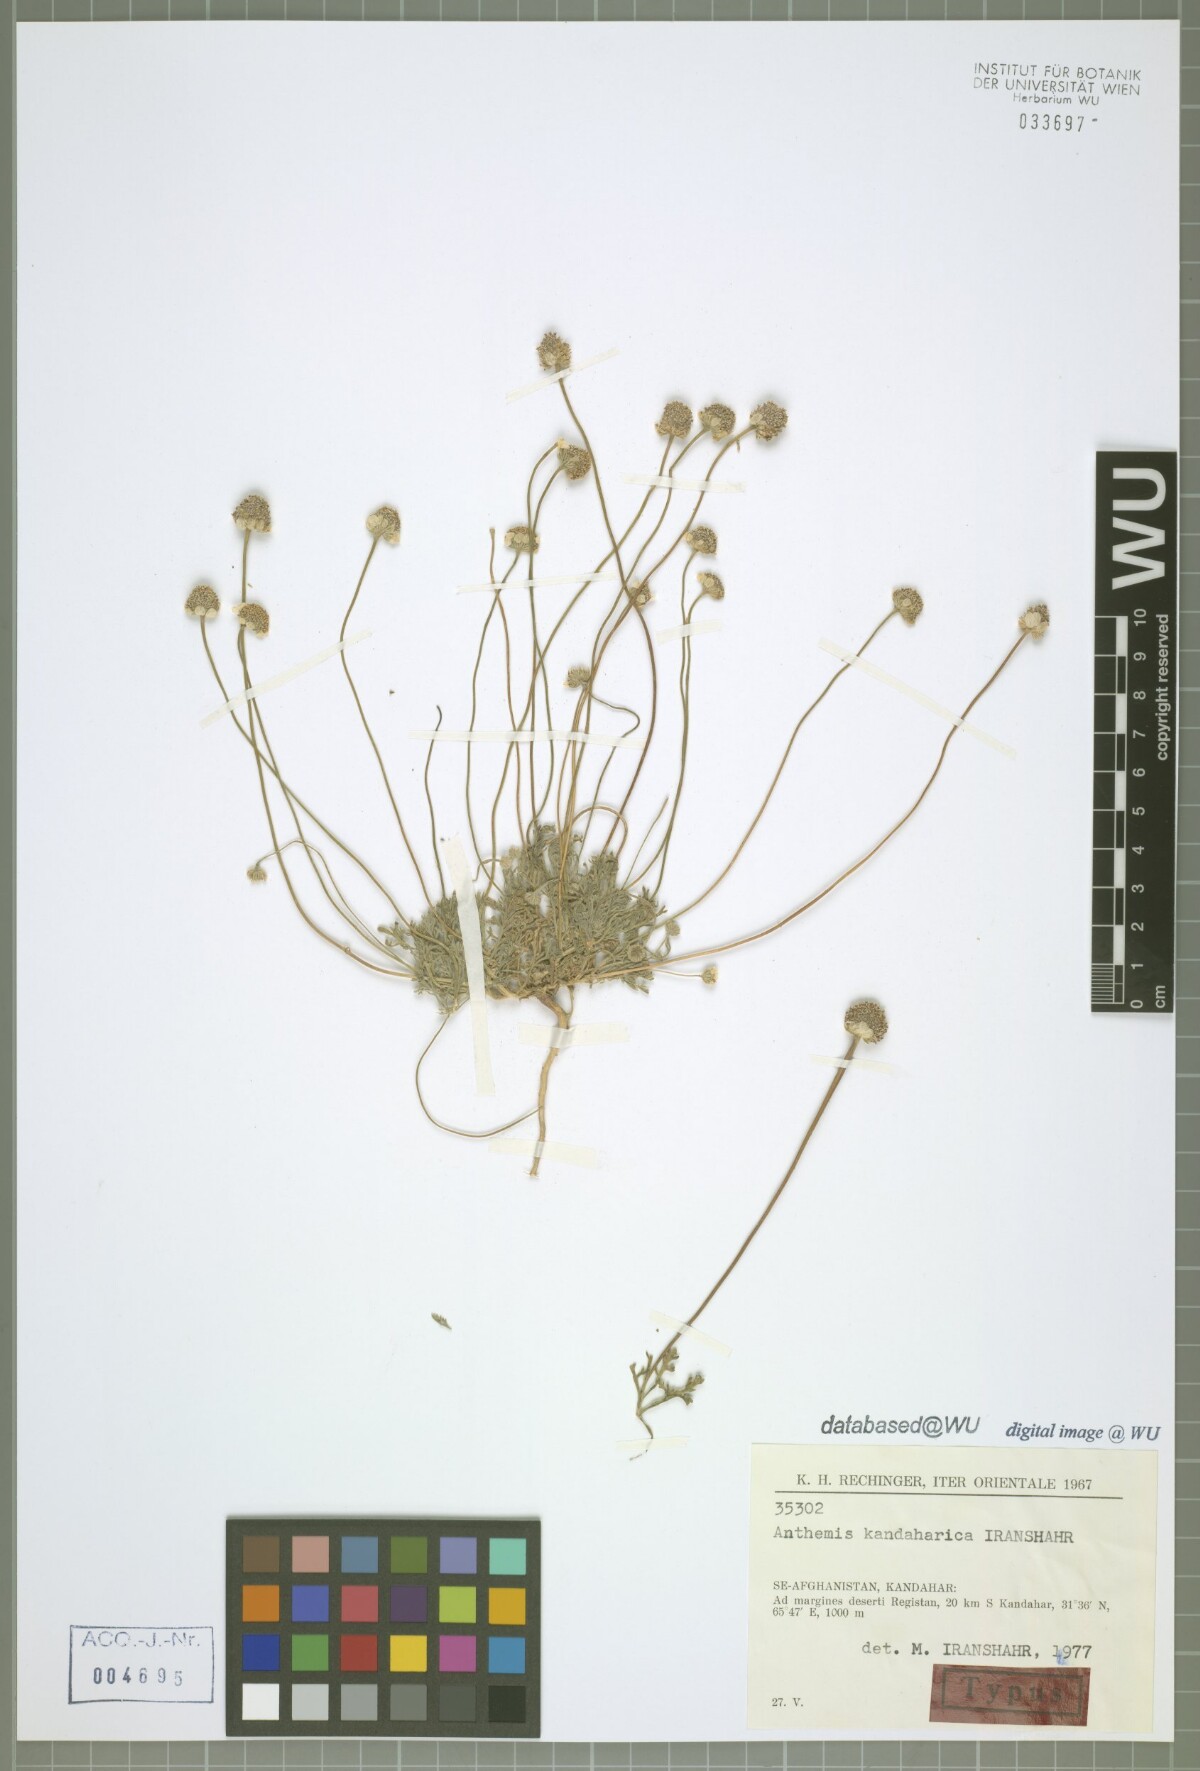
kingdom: Plantae
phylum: Tracheophyta
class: Magnoliopsida
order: Asterales
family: Asteraceae
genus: Anthemis
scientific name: Anthemis kandaharica
